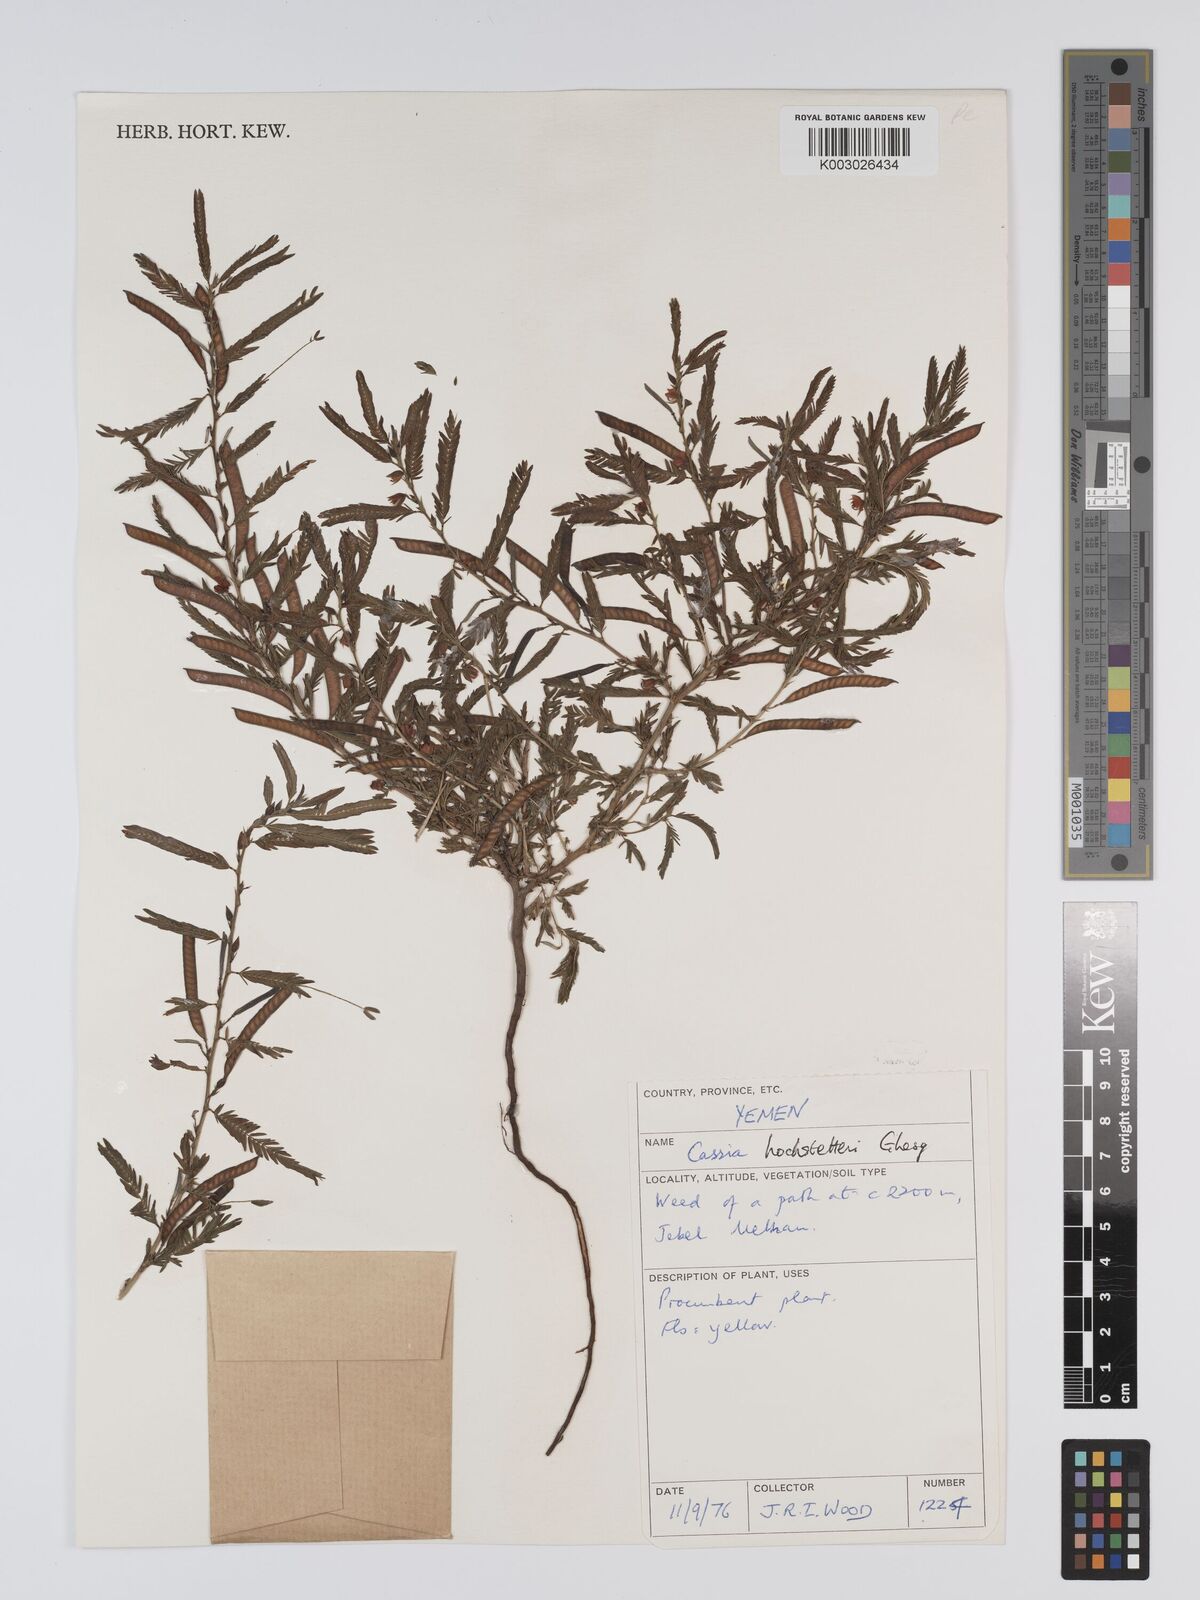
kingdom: Plantae
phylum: Tracheophyta
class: Magnoliopsida
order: Fabales
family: Fabaceae
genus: Chamaecrista
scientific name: Chamaecrista nomame
